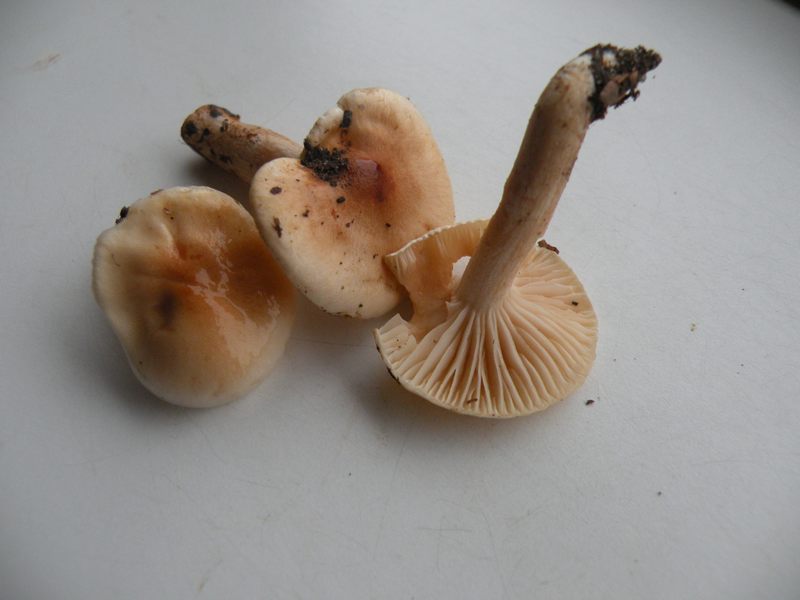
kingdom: Fungi
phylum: Basidiomycota
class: Agaricomycetes
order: Agaricales
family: Hygrophoraceae
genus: Hygrophorus
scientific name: Hygrophorus unicolor
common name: orangeøjet sneglehat
